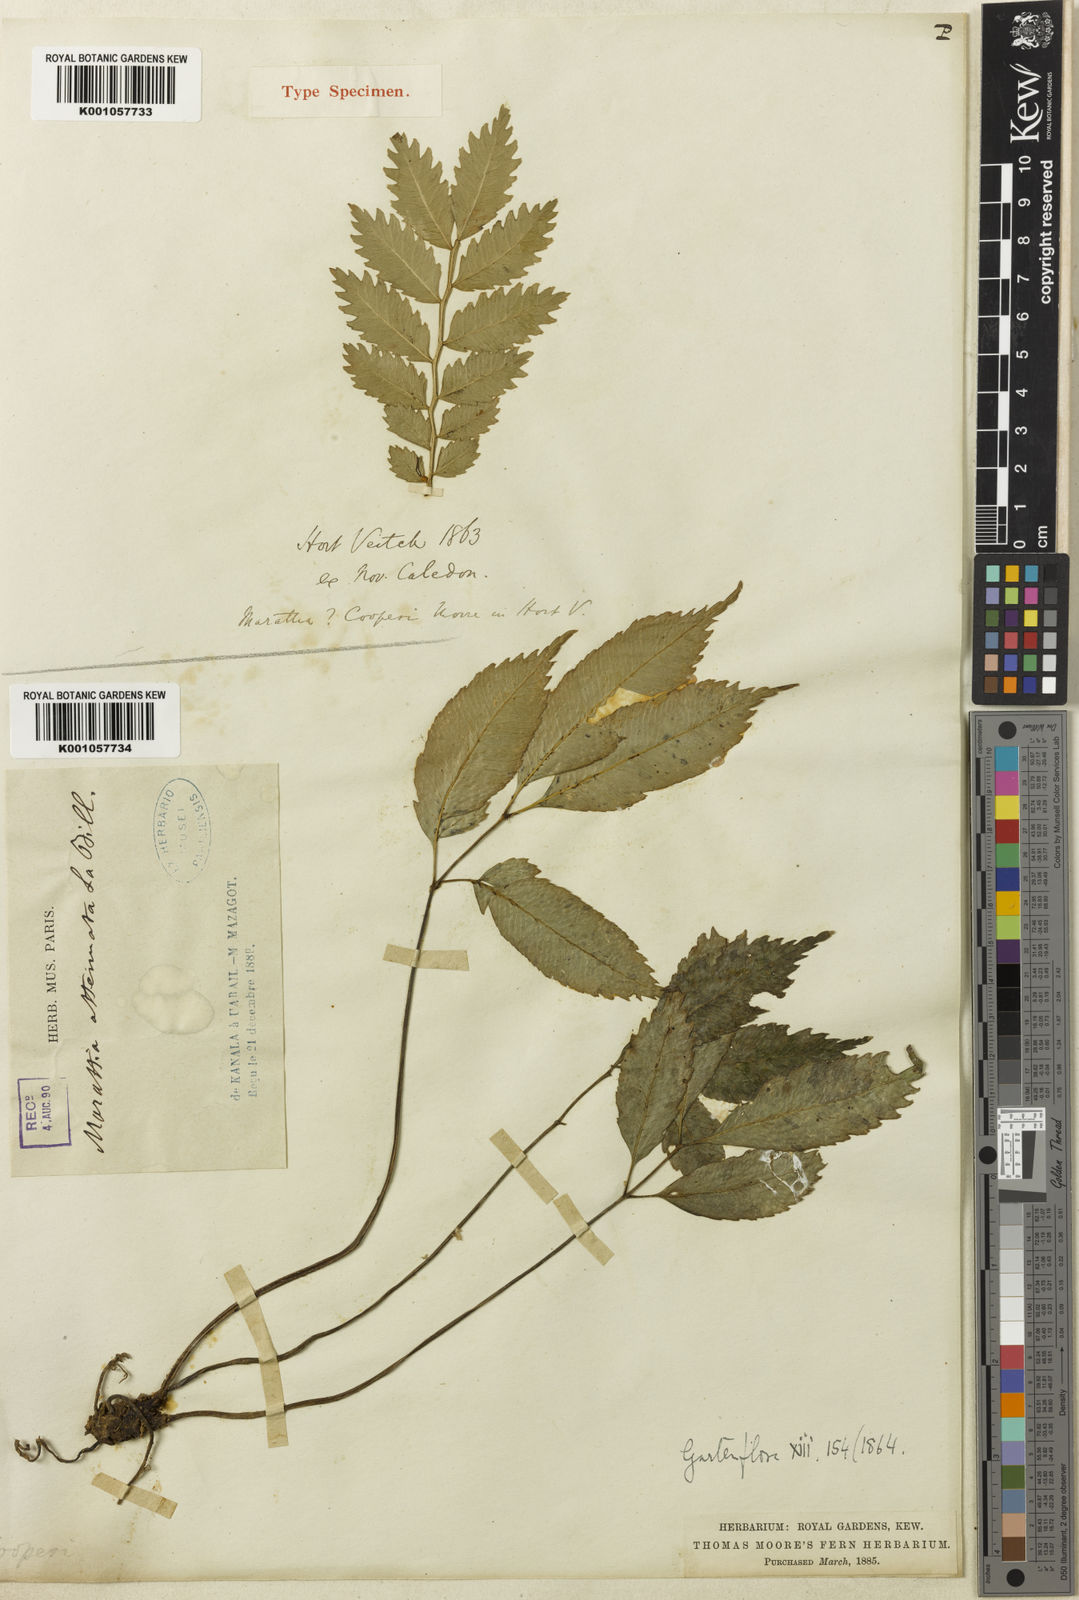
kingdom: Plantae
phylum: Tracheophyta
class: Polypodiopsida
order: Marattiales
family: Marattiaceae
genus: Ptisana
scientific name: Ptisana attenuata
